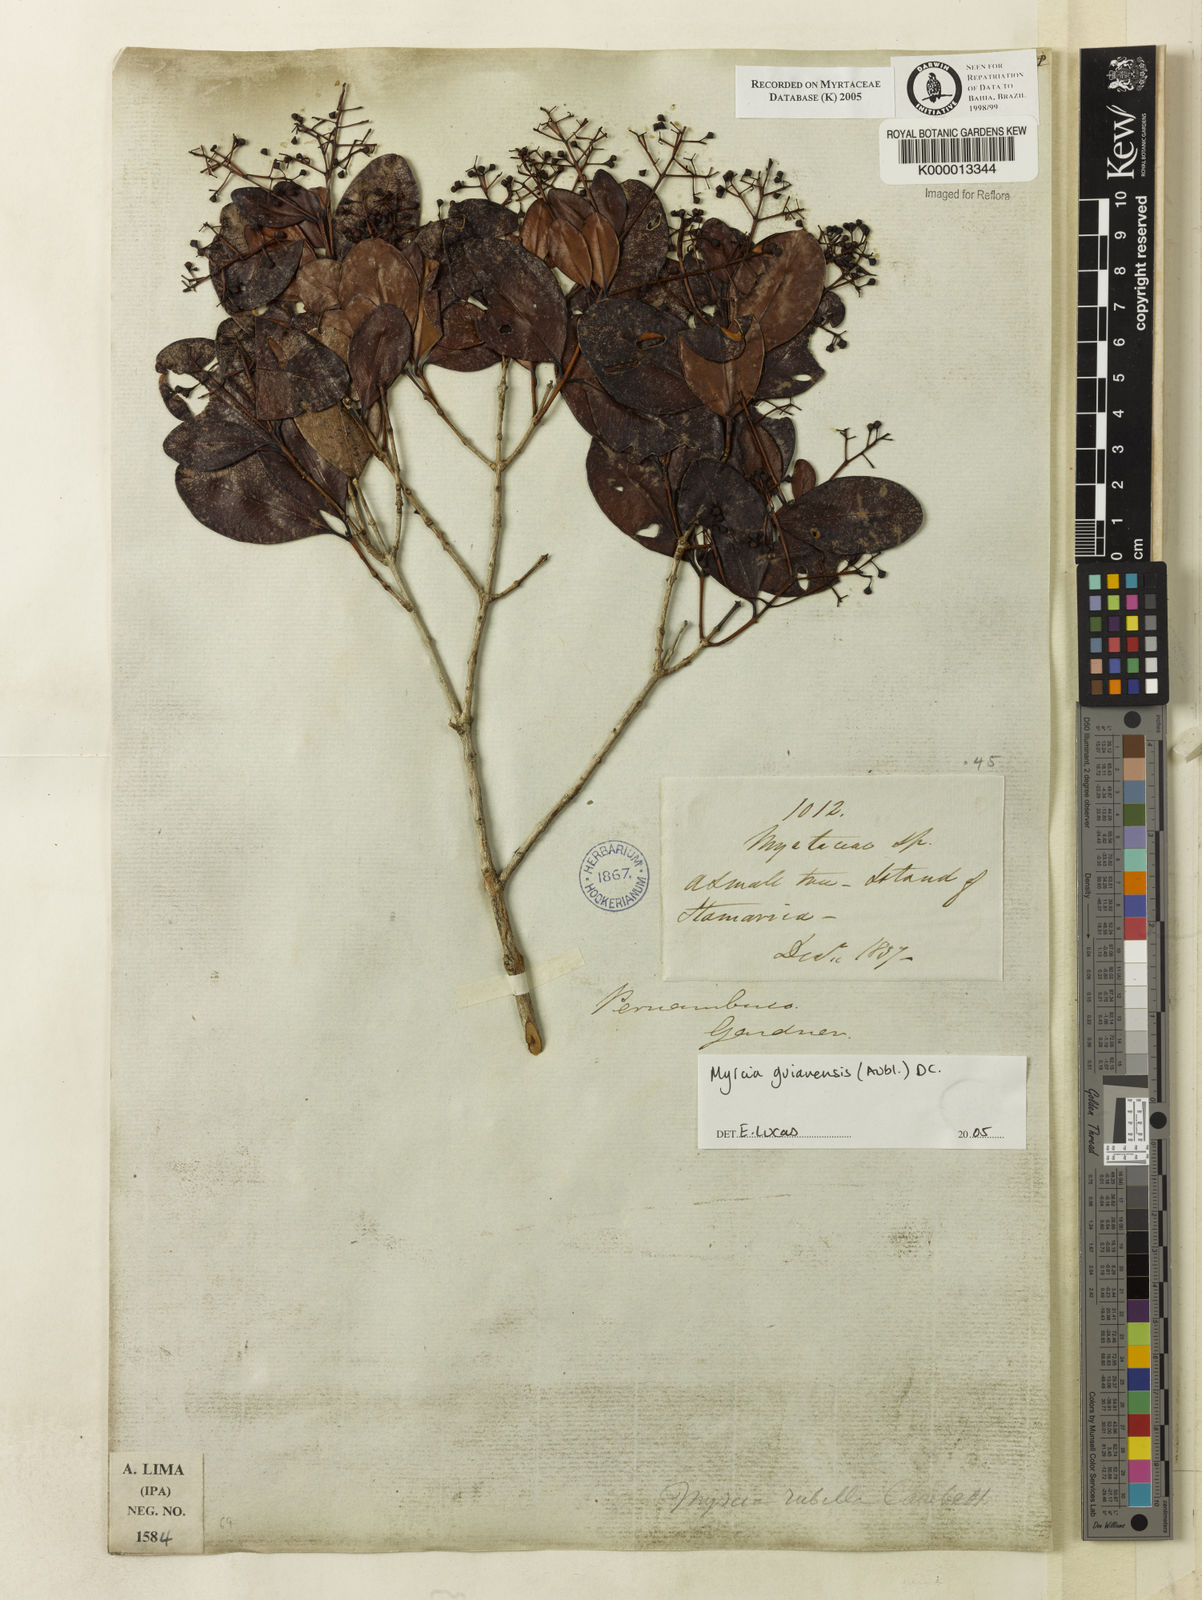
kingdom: Plantae
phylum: Tracheophyta
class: Magnoliopsida
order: Myrtales
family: Myrtaceae
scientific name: Myrtaceae
